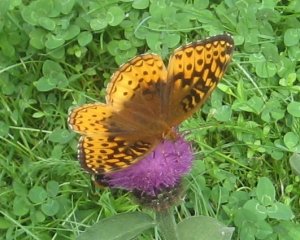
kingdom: Animalia
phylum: Arthropoda
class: Insecta
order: Lepidoptera
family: Nymphalidae
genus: Speyeria
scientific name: Speyeria cybele
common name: Great Spangled Fritillary
